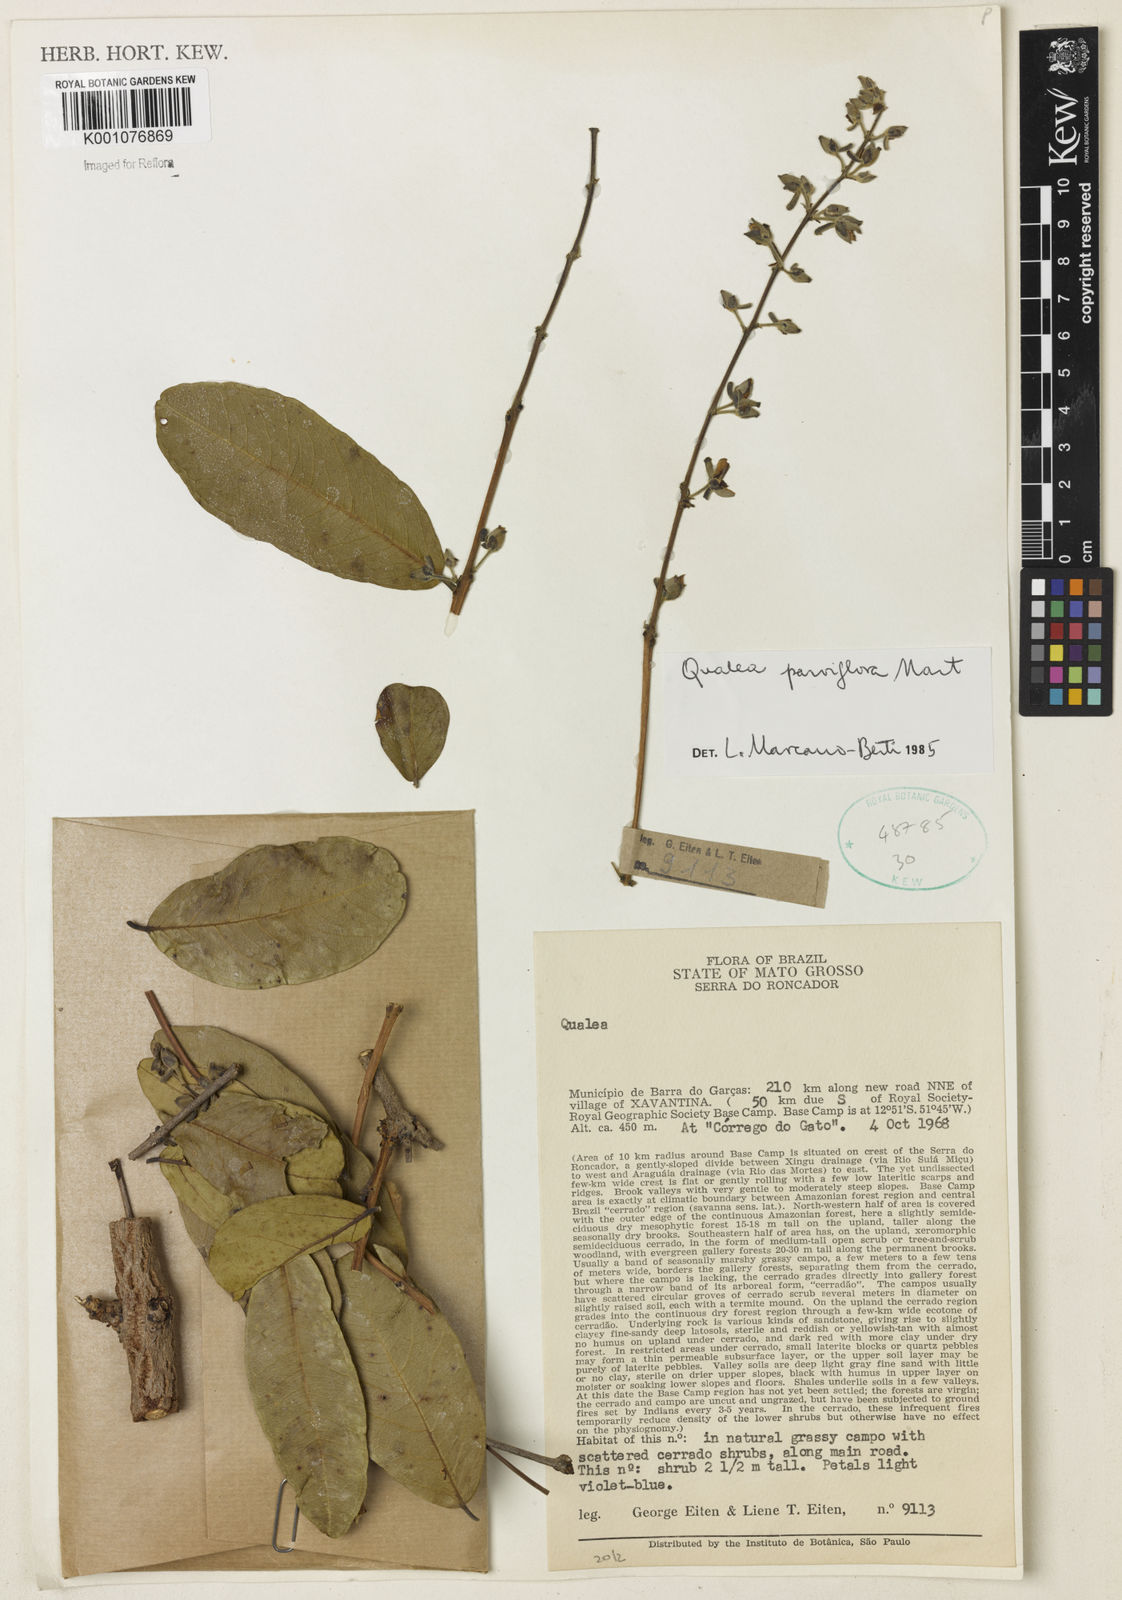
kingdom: Plantae
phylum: Tracheophyta
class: Magnoliopsida
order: Myrtales
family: Vochysiaceae
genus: Qualea
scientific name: Qualea parviflora
